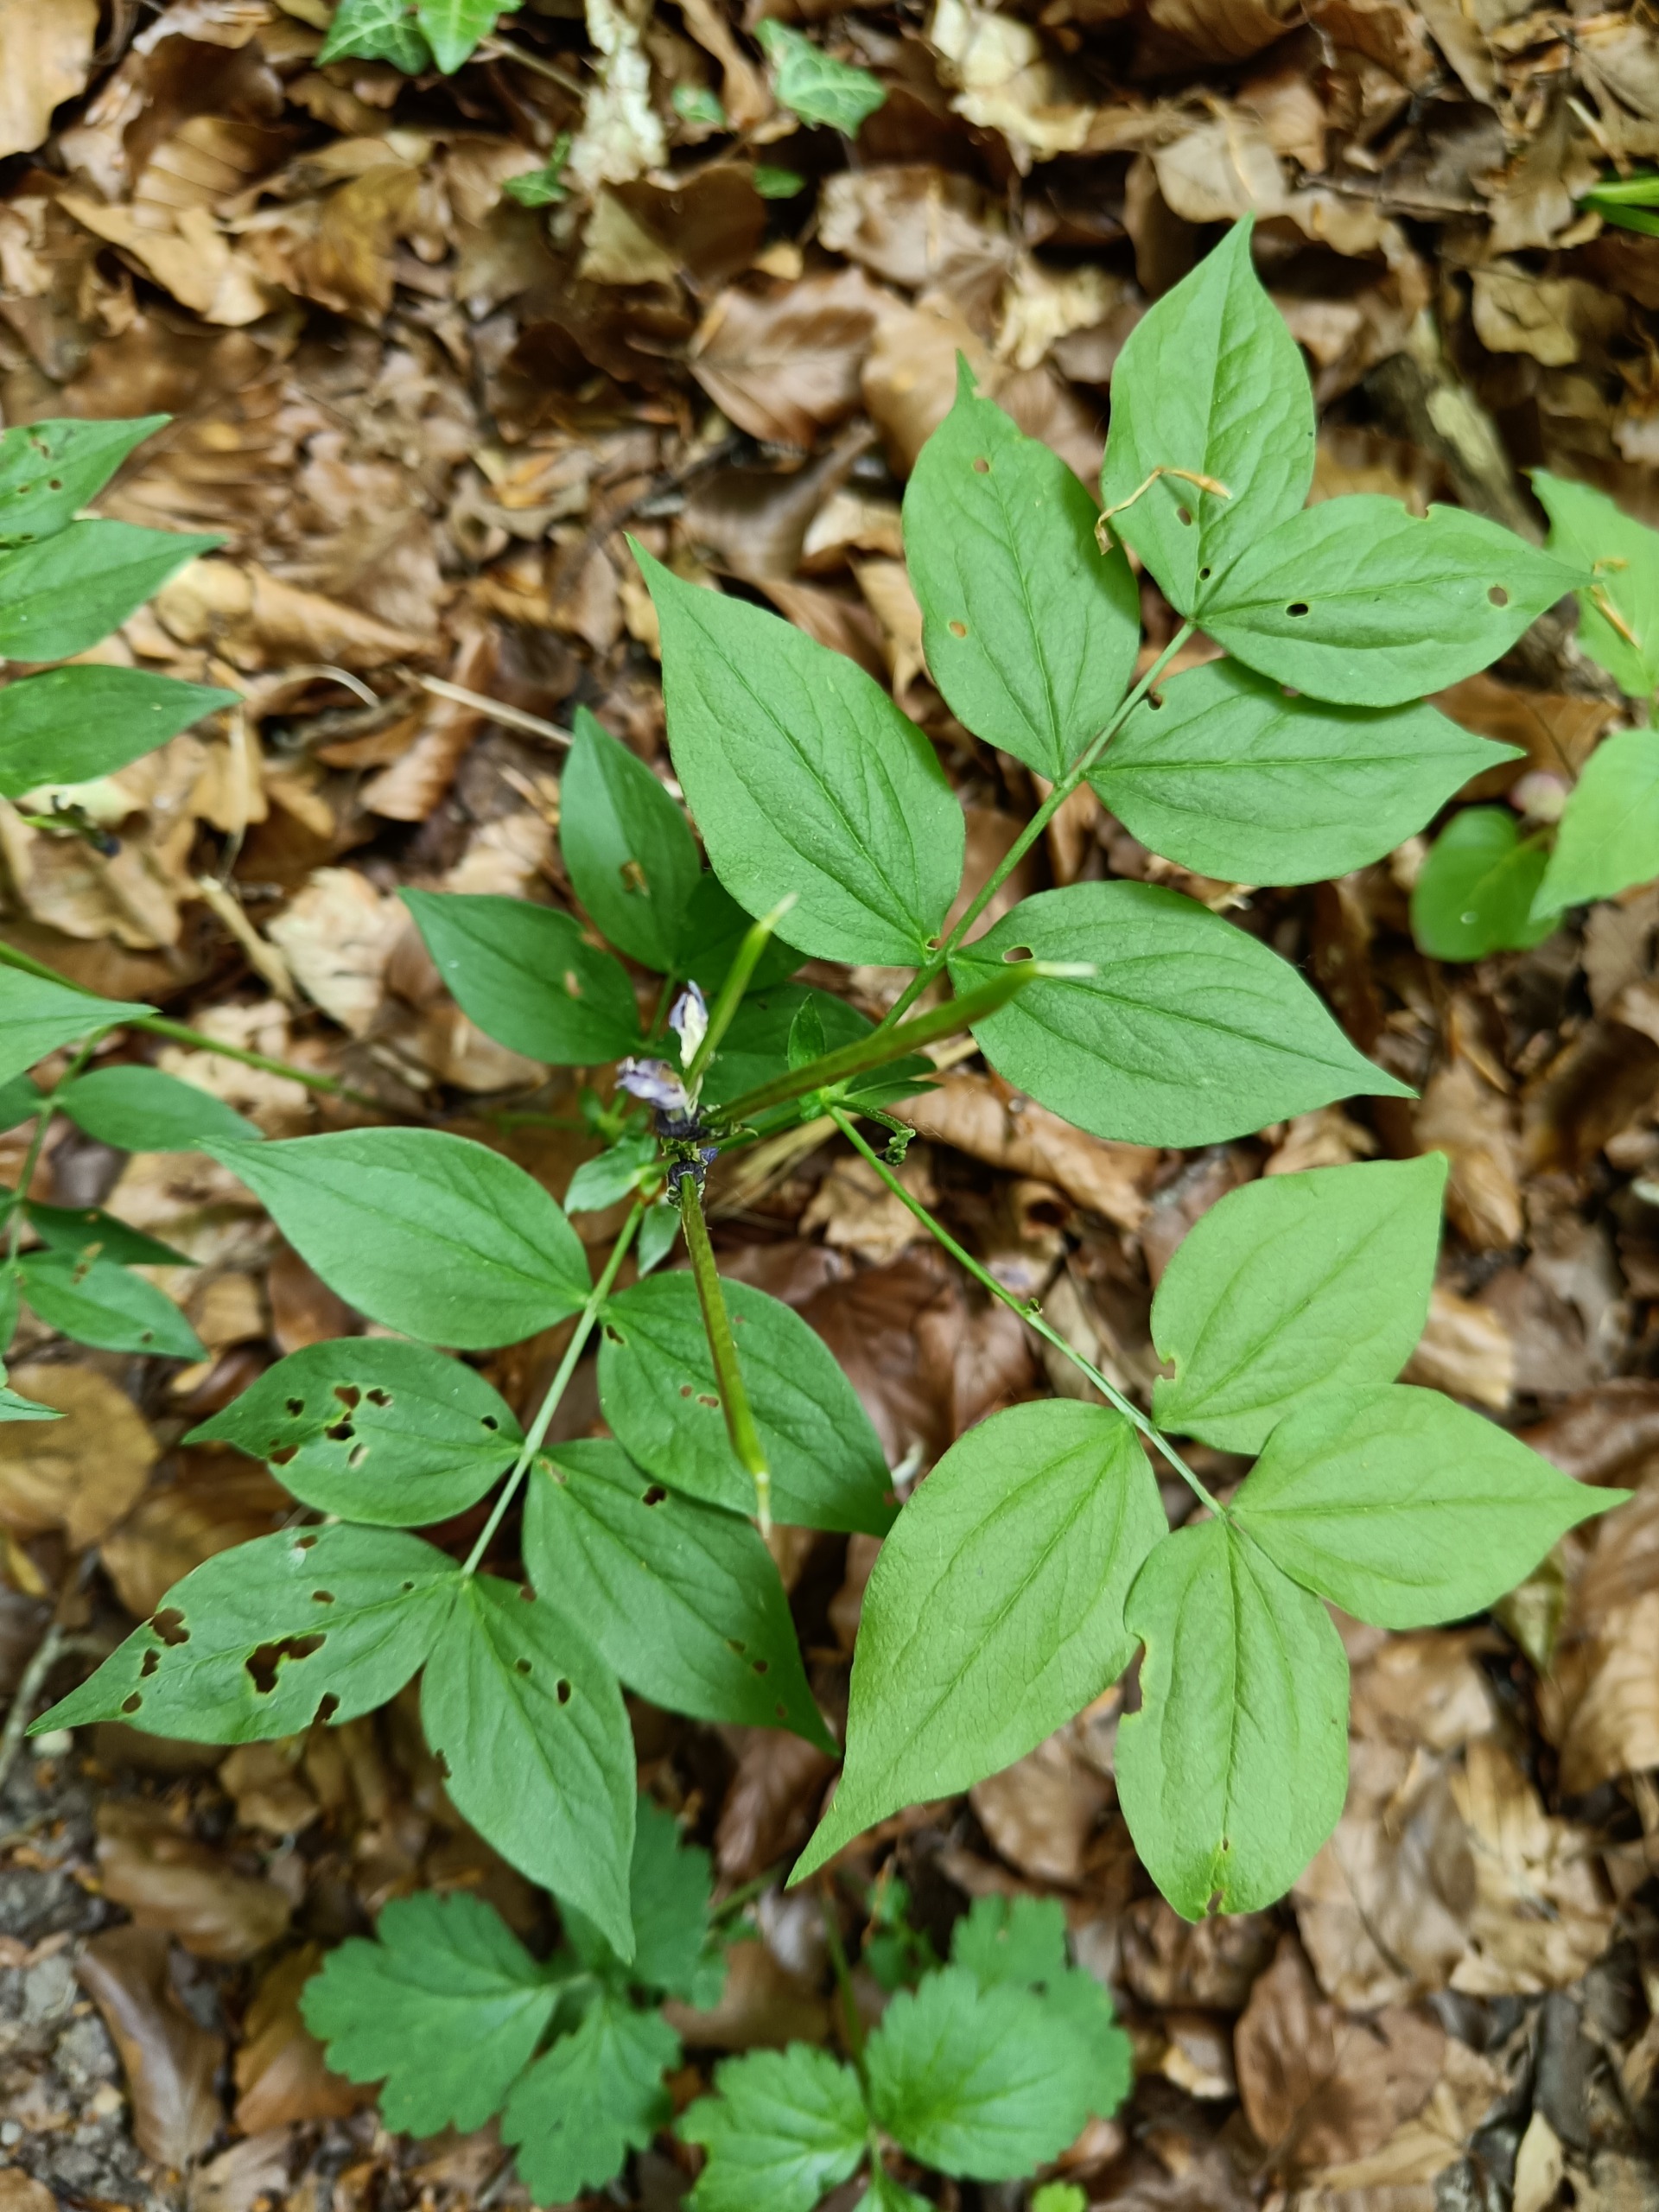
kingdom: Plantae
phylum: Tracheophyta
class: Magnoliopsida
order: Fabales
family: Fabaceae
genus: Lathyrus
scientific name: Lathyrus vernus
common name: Vår-fladbælg
